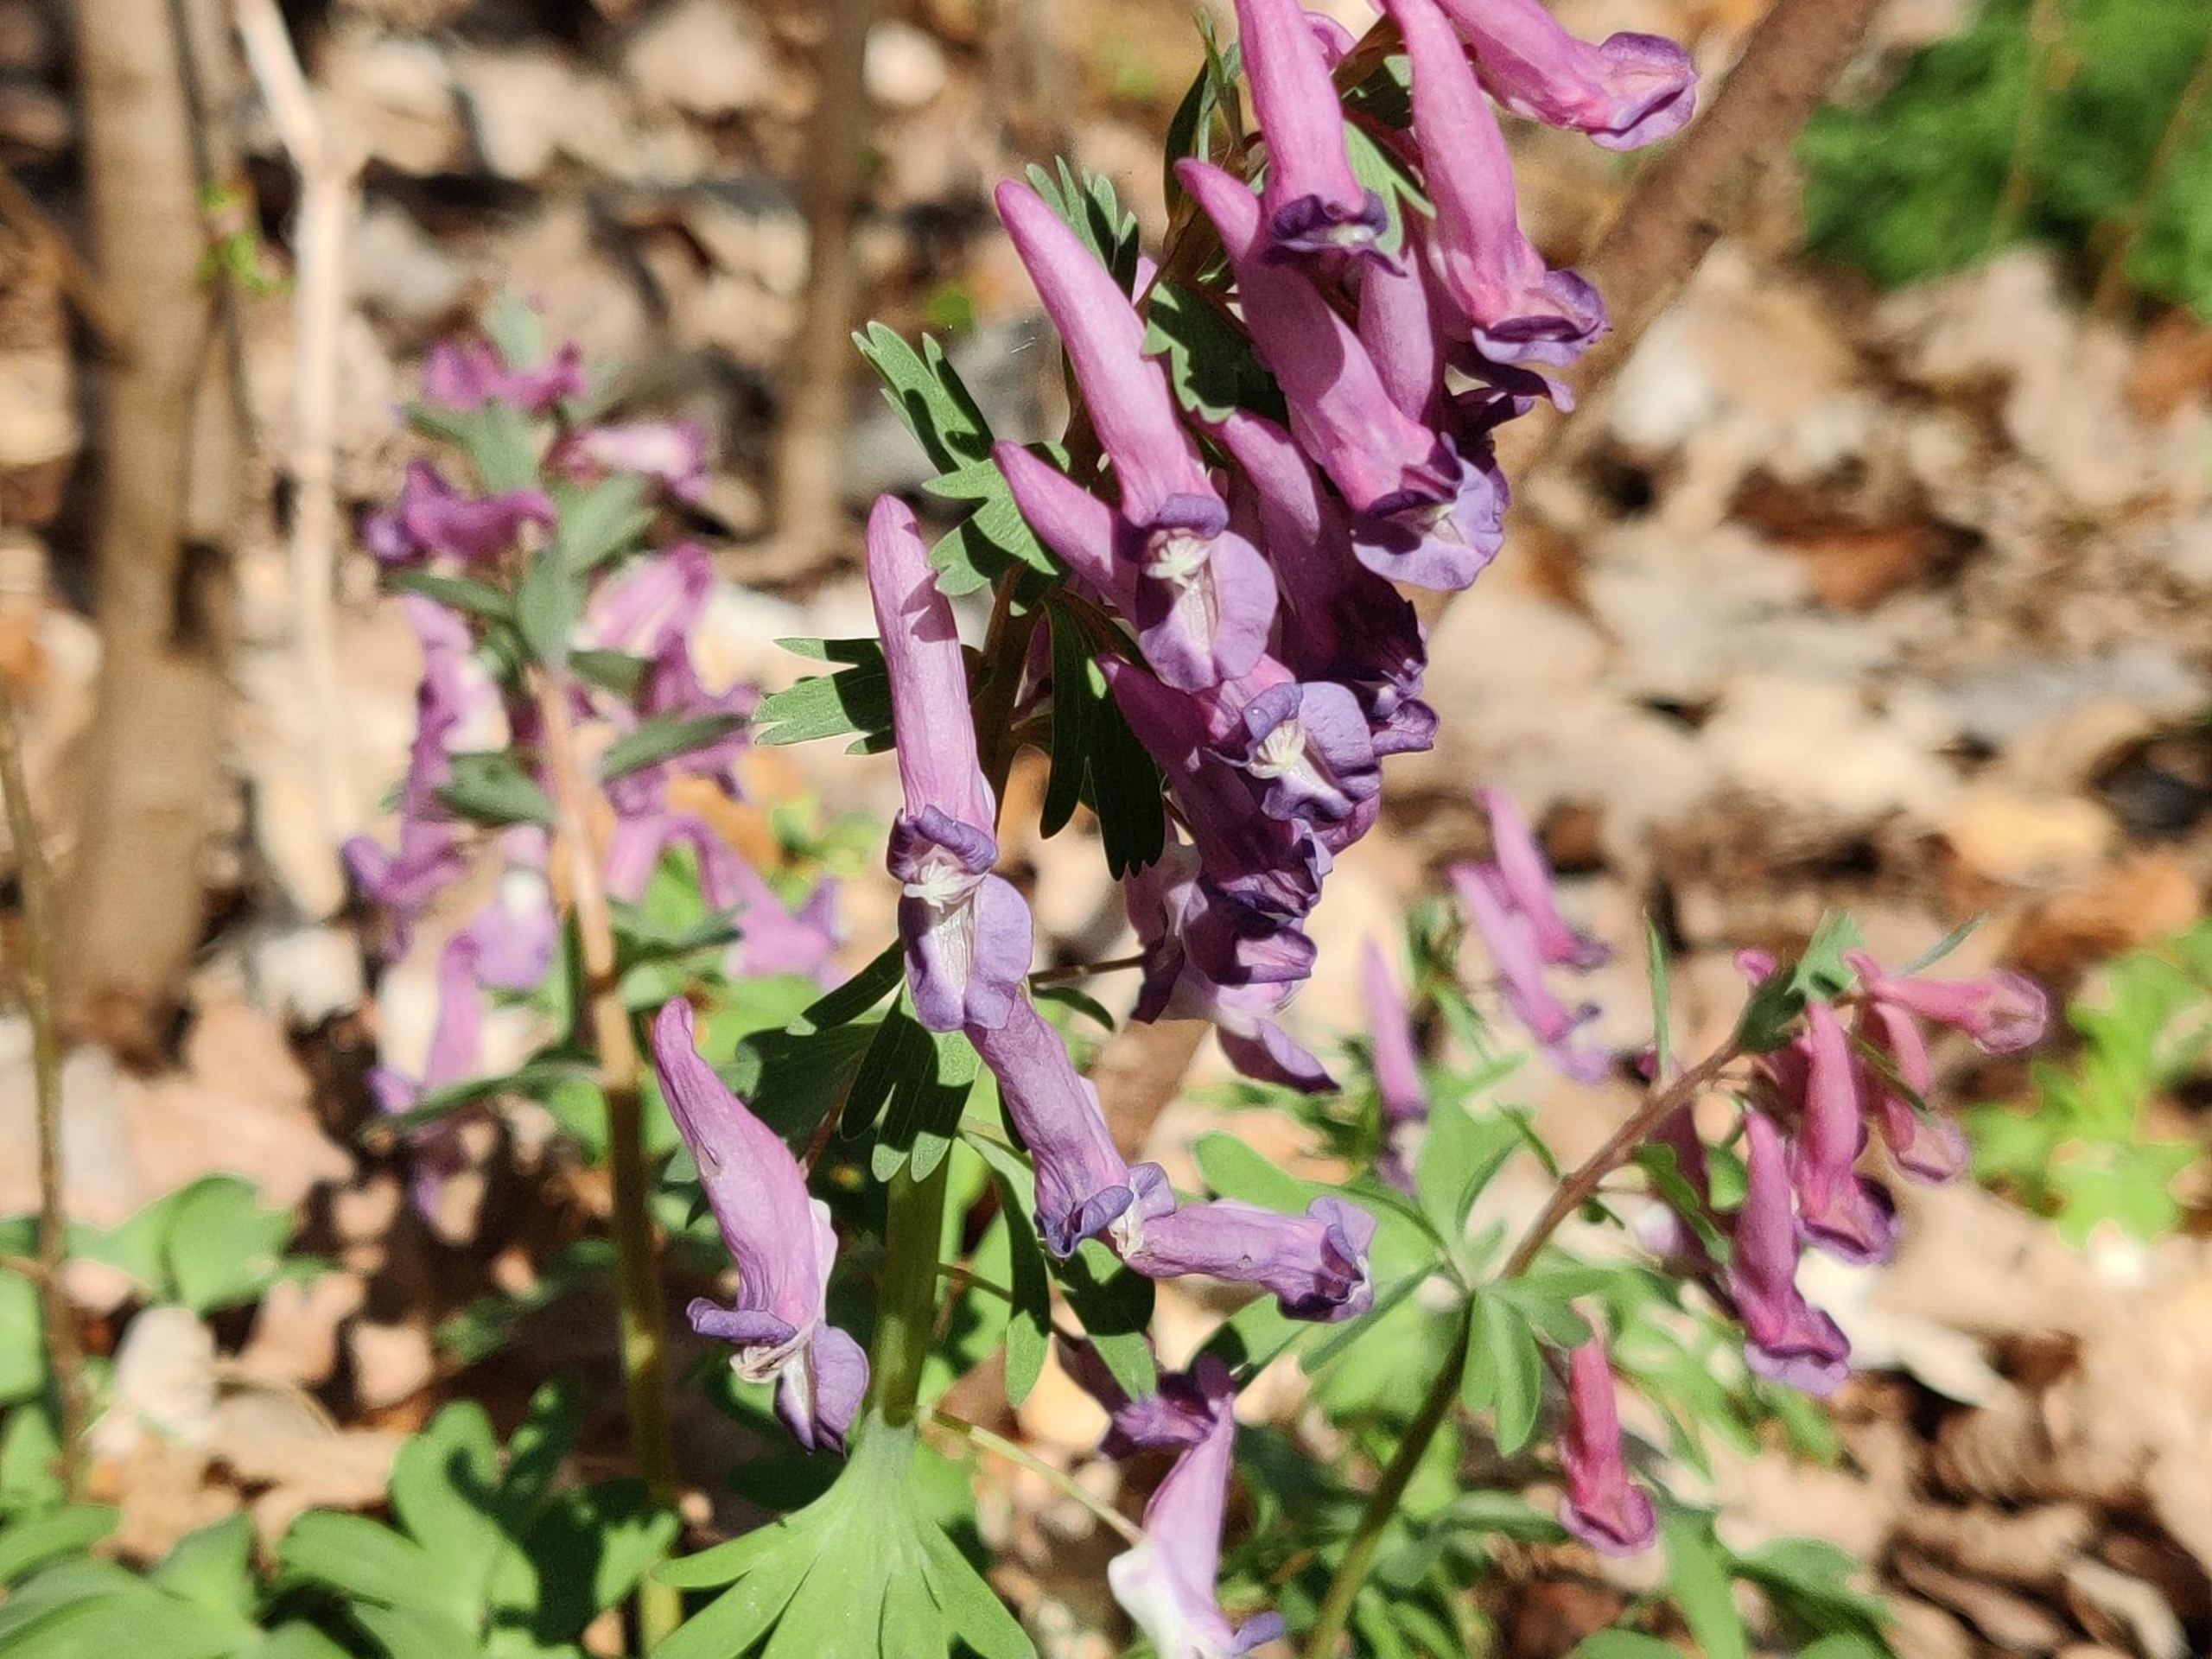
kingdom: Plantae
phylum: Tracheophyta
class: Magnoliopsida
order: Ranunculales
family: Papaveraceae
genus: Corydalis
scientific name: Corydalis solida
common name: Langstilket lærkespore
